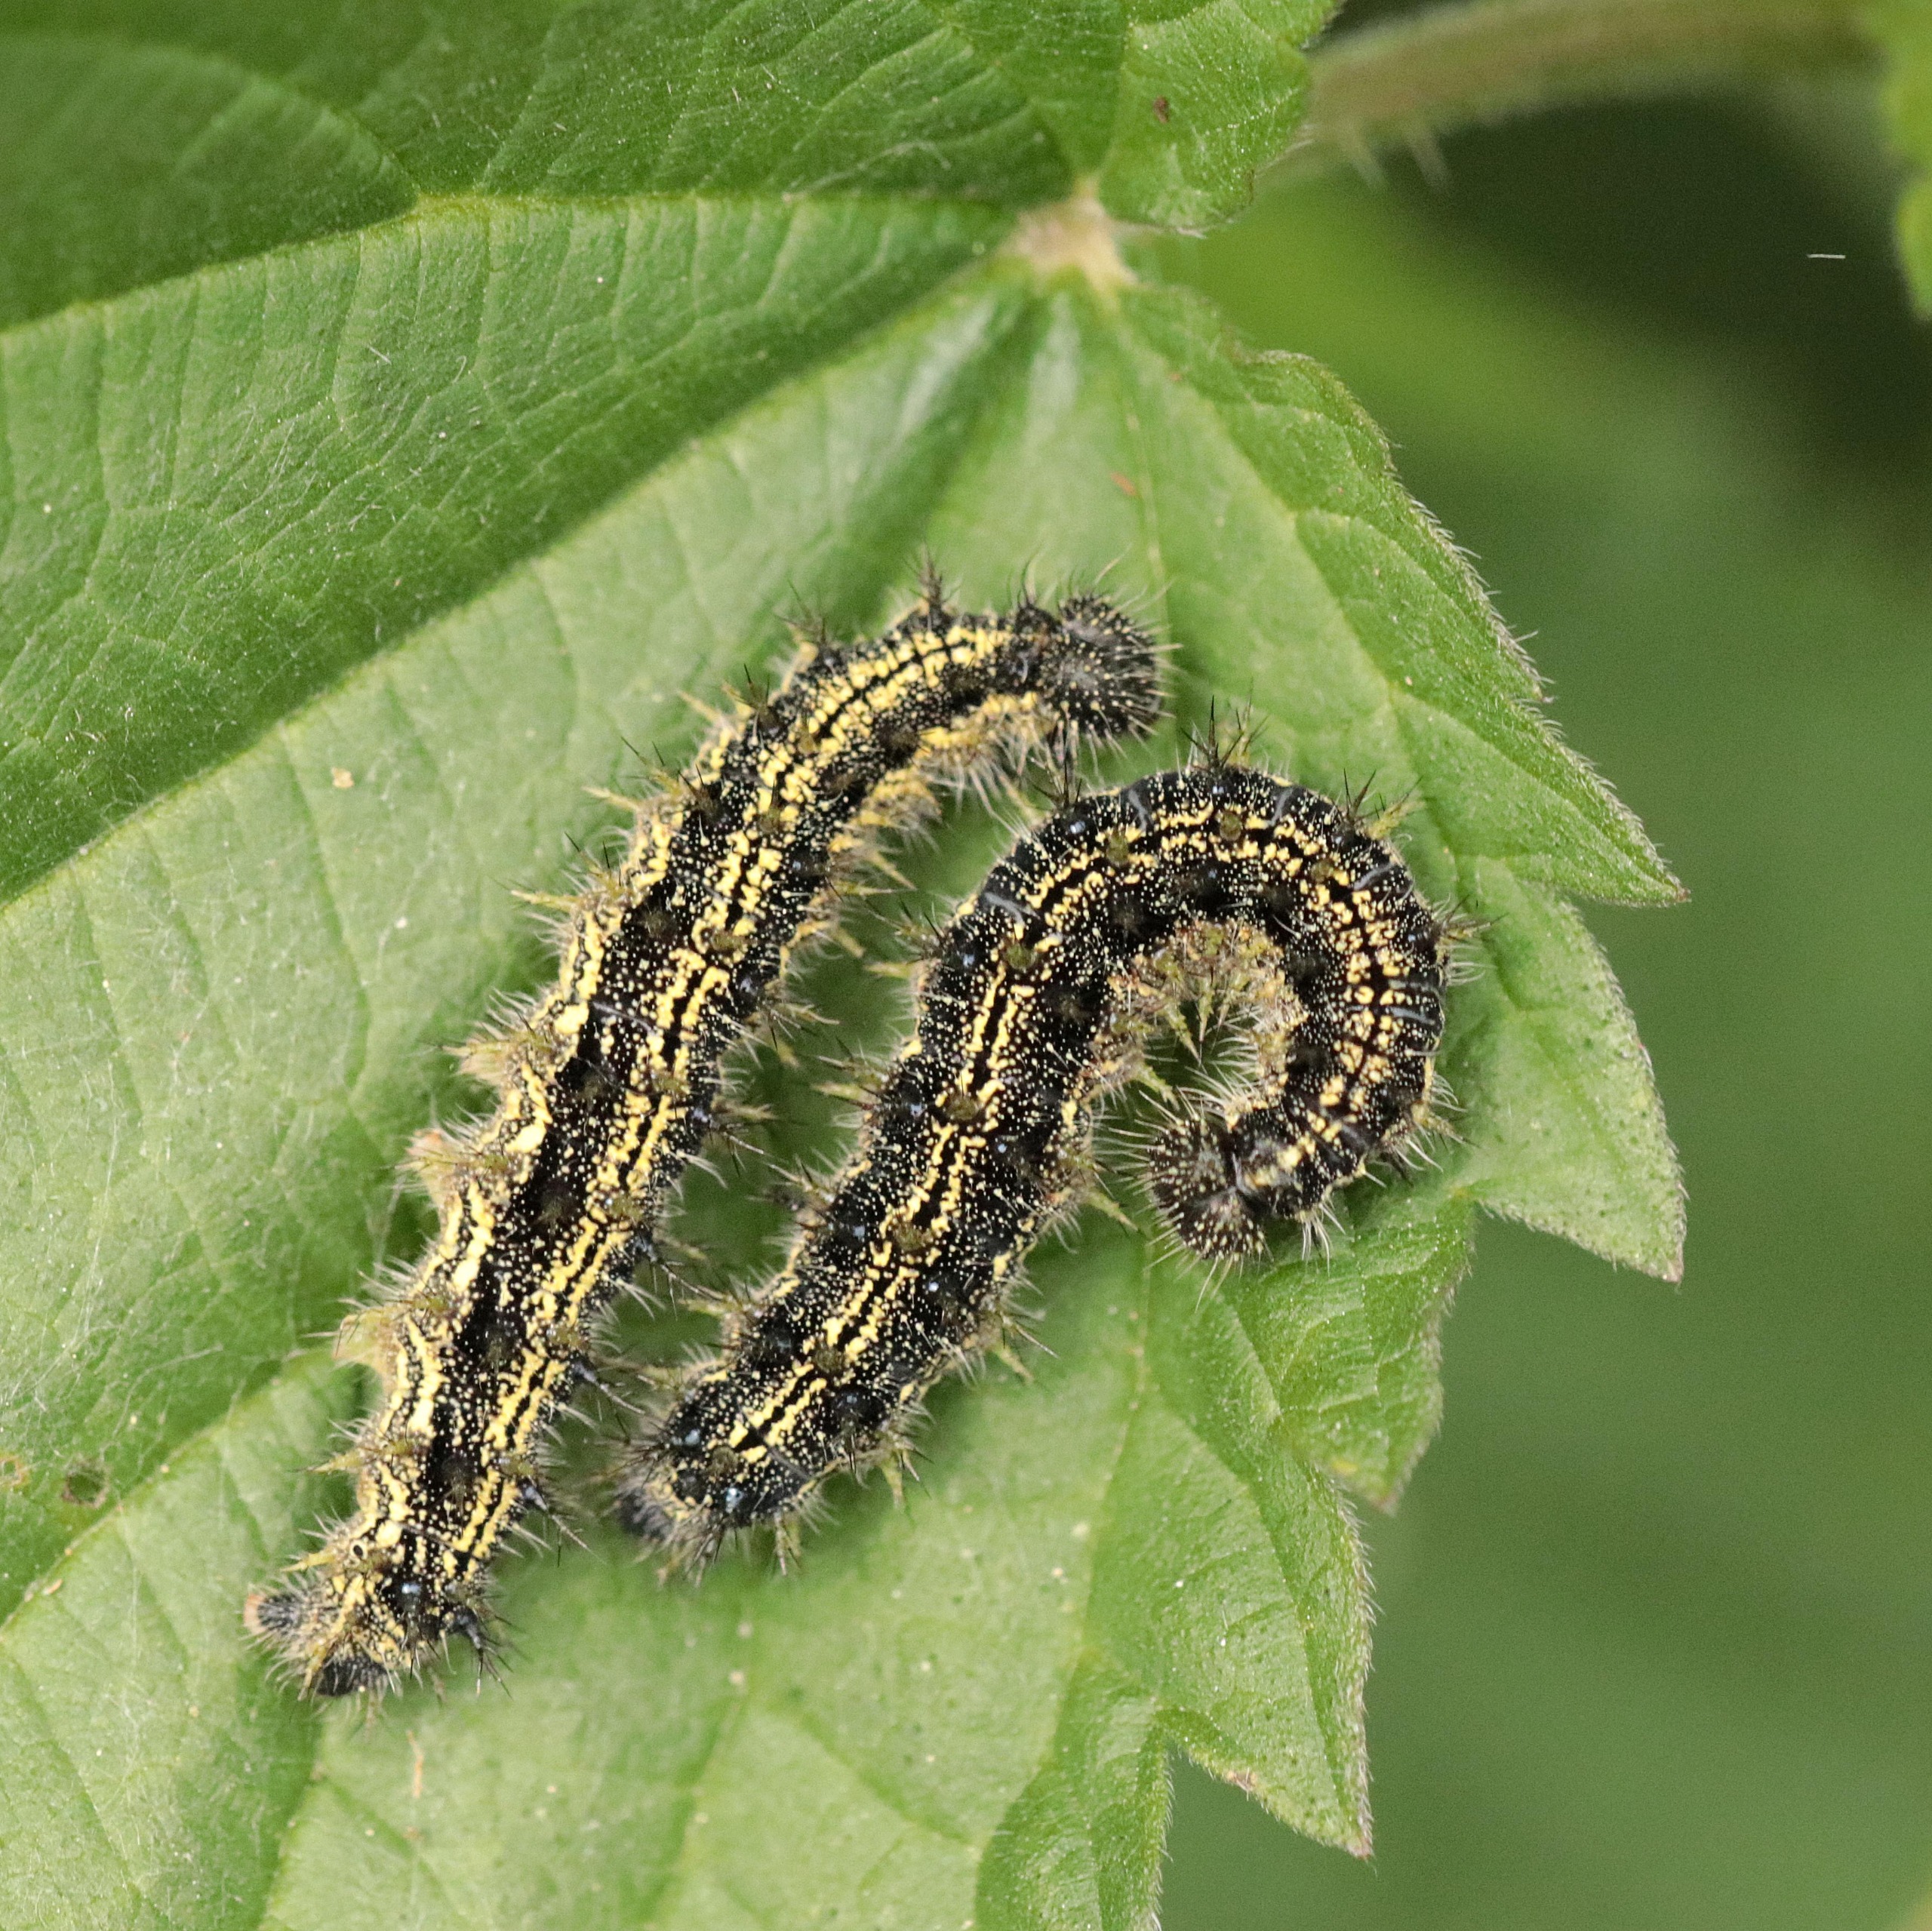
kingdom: Animalia
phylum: Arthropoda
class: Insecta
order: Lepidoptera
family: Nymphalidae
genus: Aglais
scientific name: Aglais urticae
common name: Nældens takvinge
